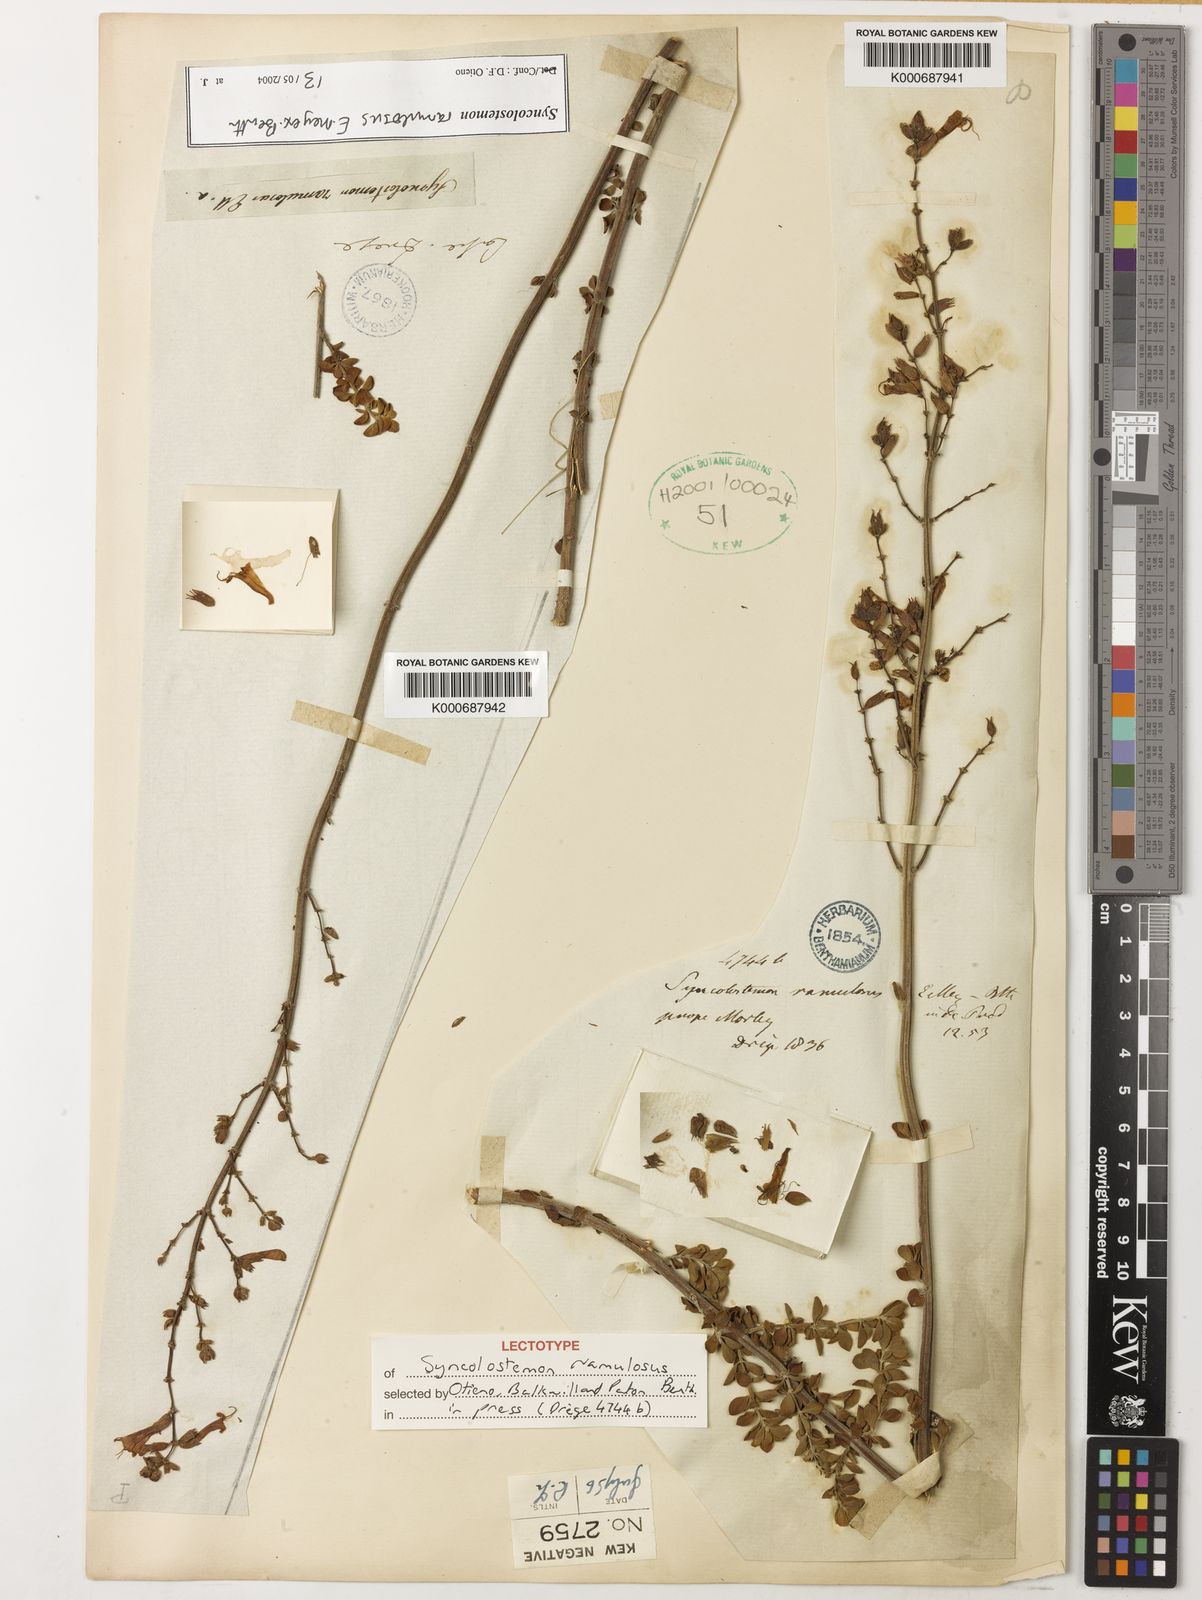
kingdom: Plantae
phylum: Tracheophyta
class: Magnoliopsida
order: Lamiales
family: Lamiaceae
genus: Syncolostemon
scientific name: Syncolostemon ramulosus
